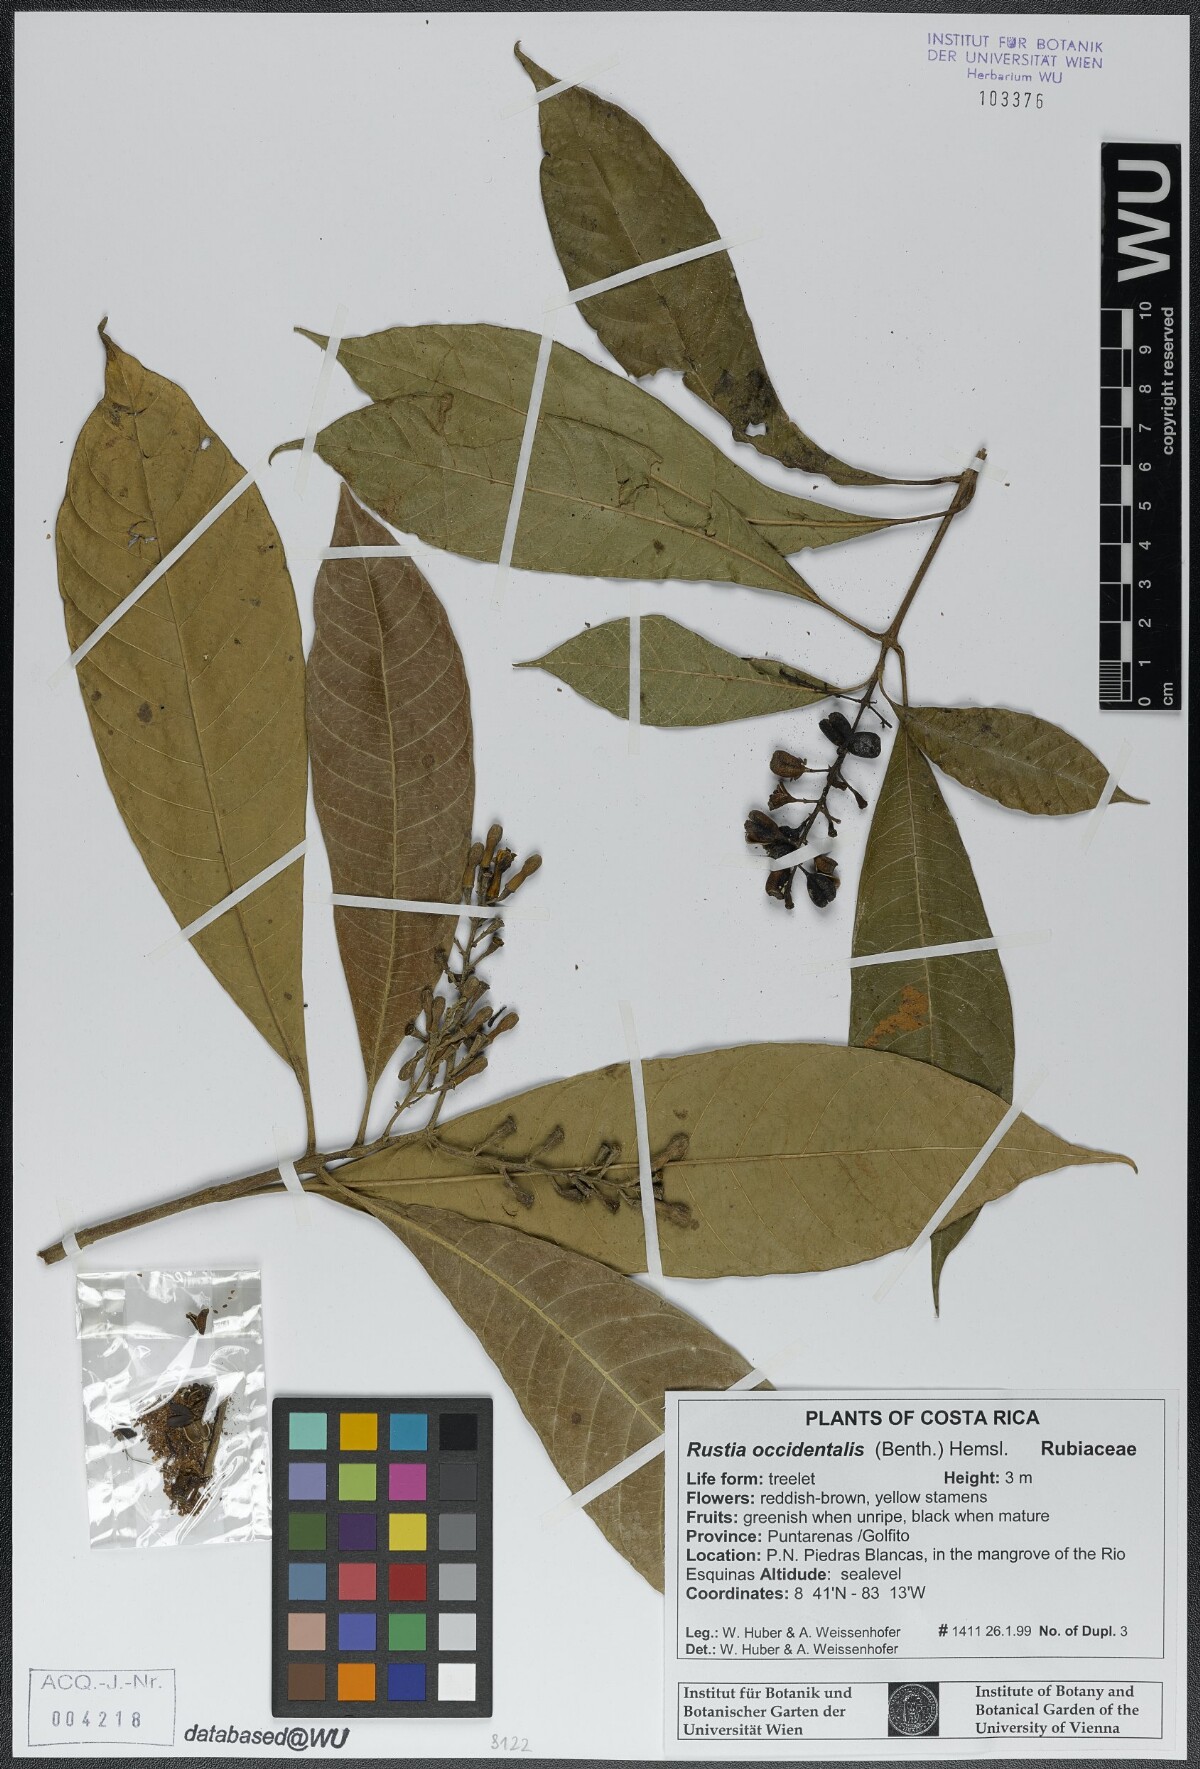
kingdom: Plantae
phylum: Tracheophyta
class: Magnoliopsida
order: Gentianales
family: Rubiaceae
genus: Rustia
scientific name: Rustia occidentalis
